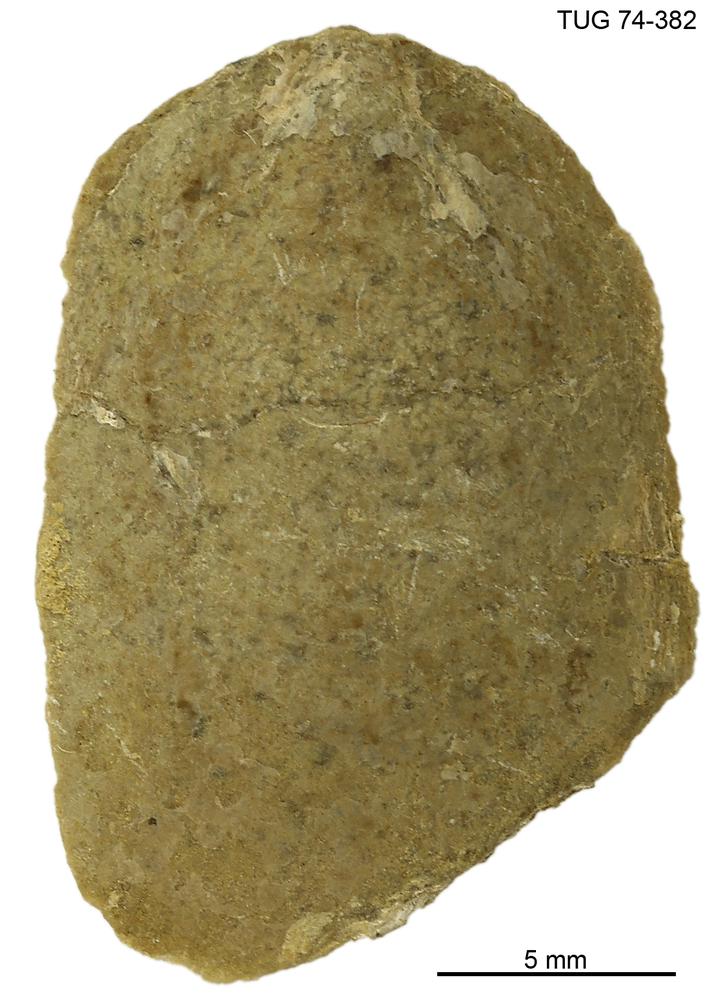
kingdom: Animalia
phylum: Brachiopoda
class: Lingulata
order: Lingulida
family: Pseudolingulidae
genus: Pseudolingula
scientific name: Pseudolingula
